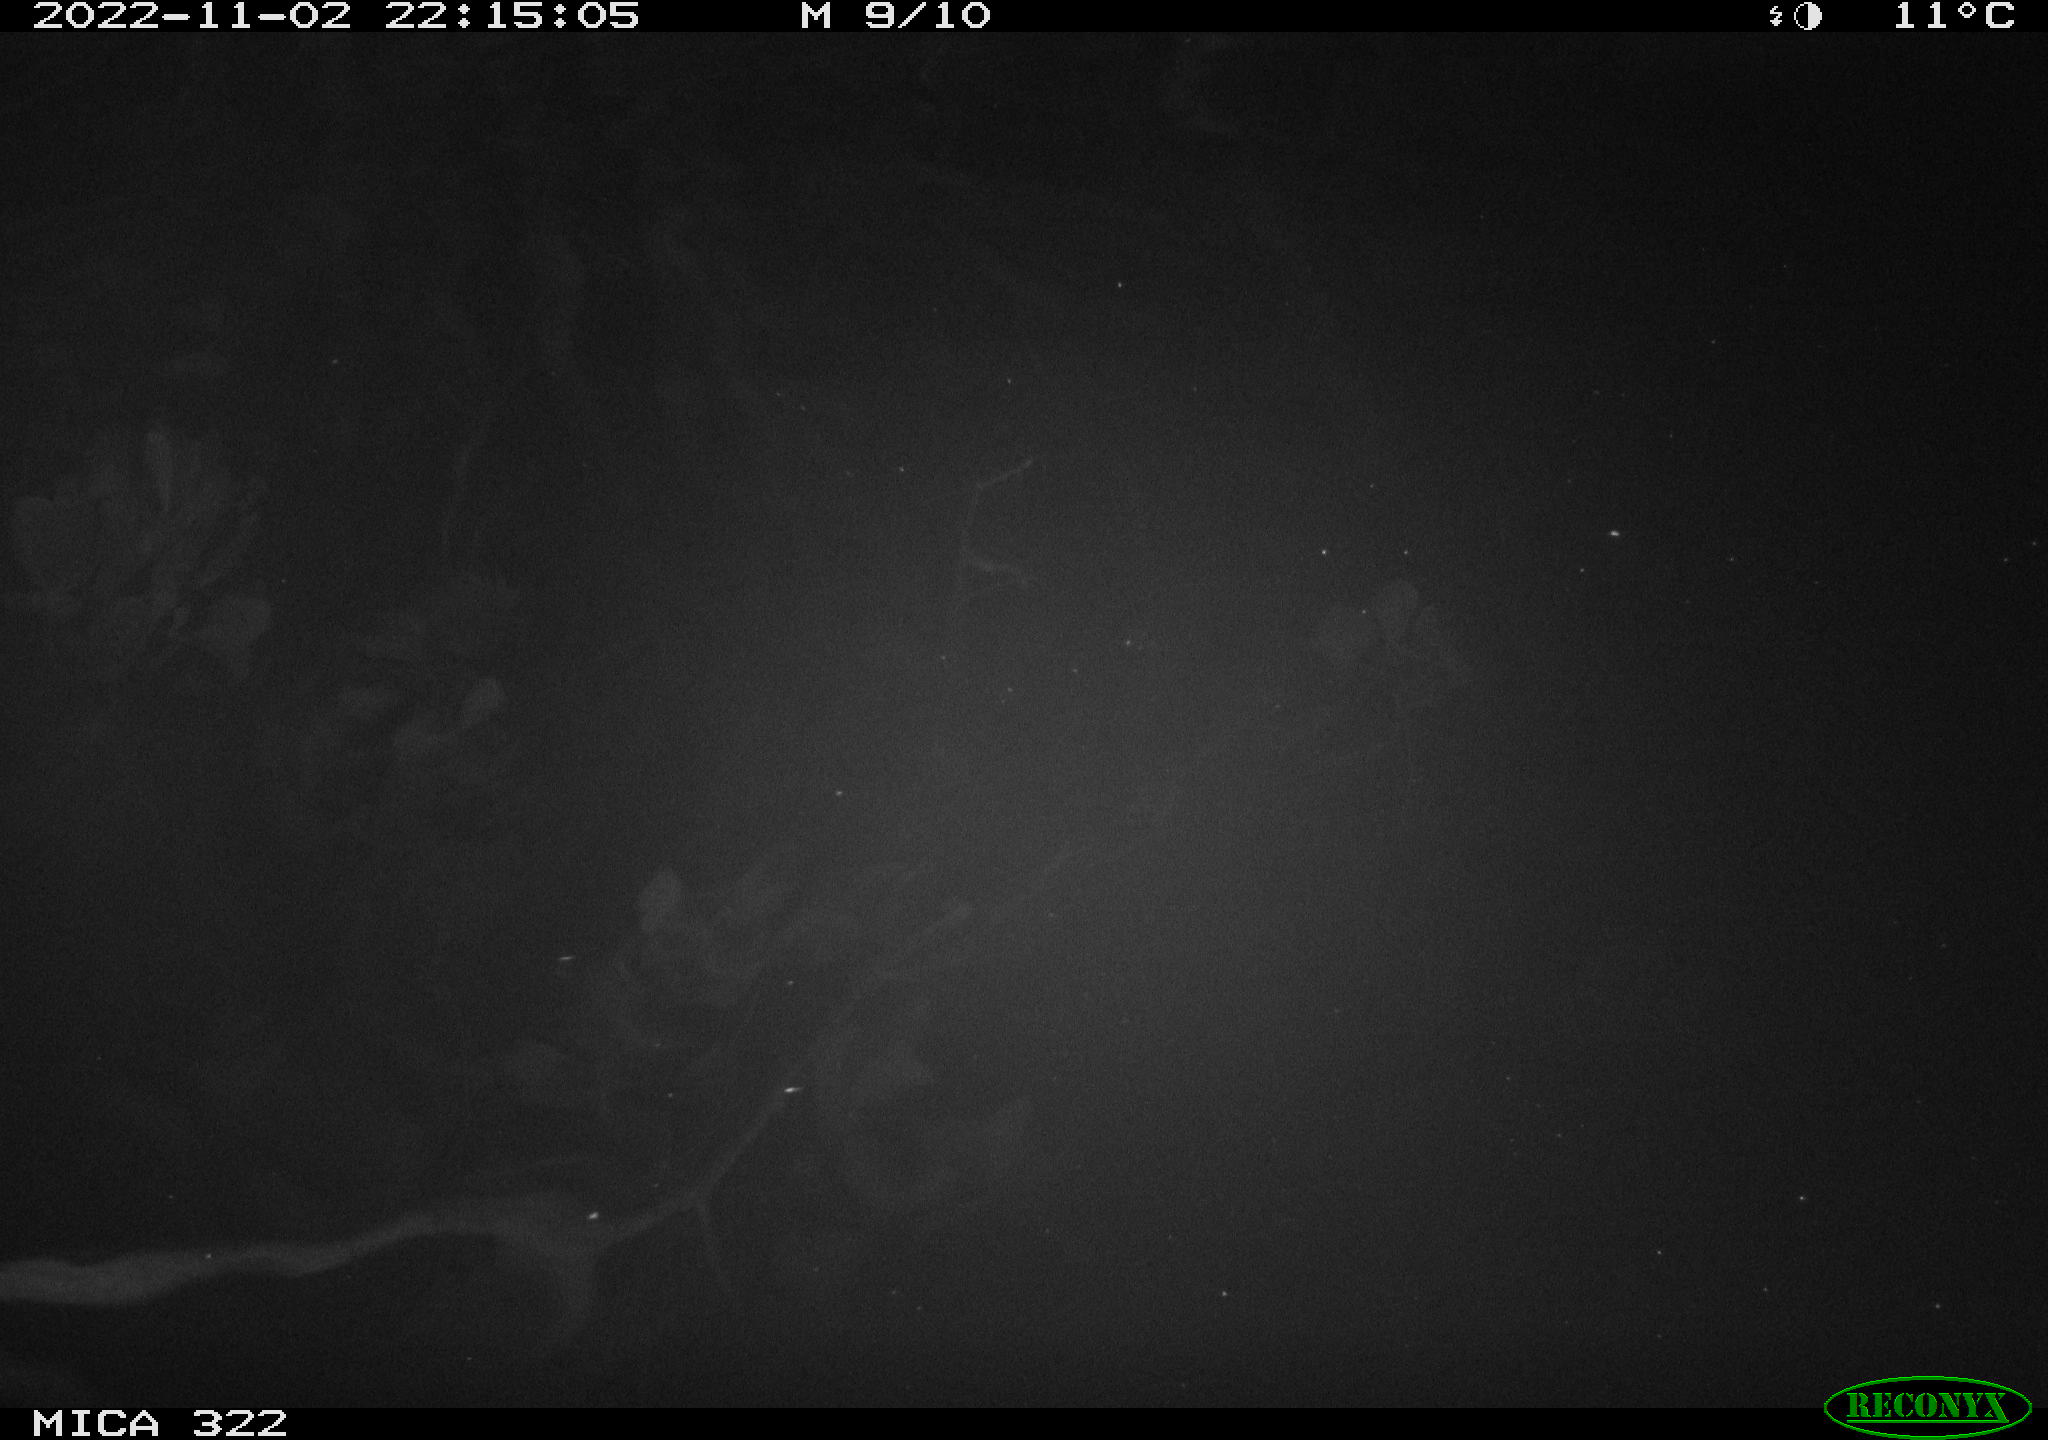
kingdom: Animalia
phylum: Chordata
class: Mammalia
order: Rodentia
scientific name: Rodentia
